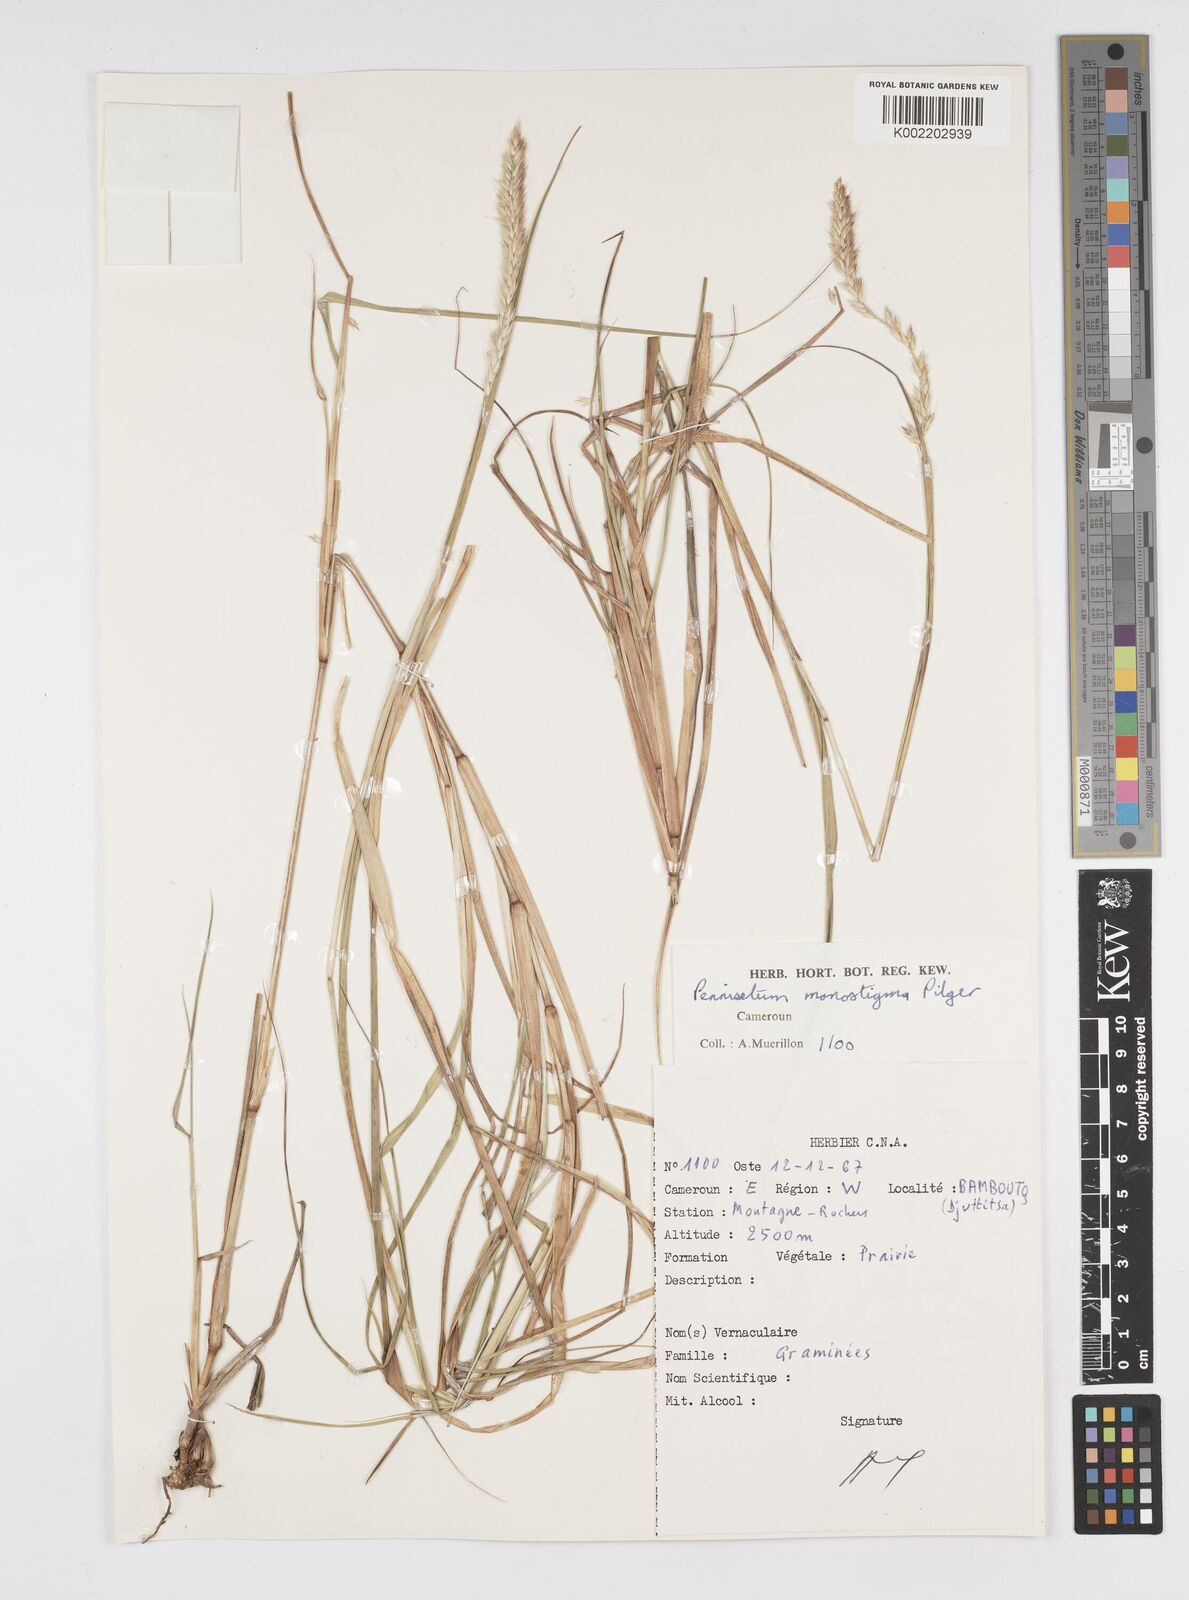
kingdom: Plantae
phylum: Tracheophyta
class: Liliopsida
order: Poales
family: Poaceae
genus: Cenchrus
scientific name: Cenchrus monostigma
